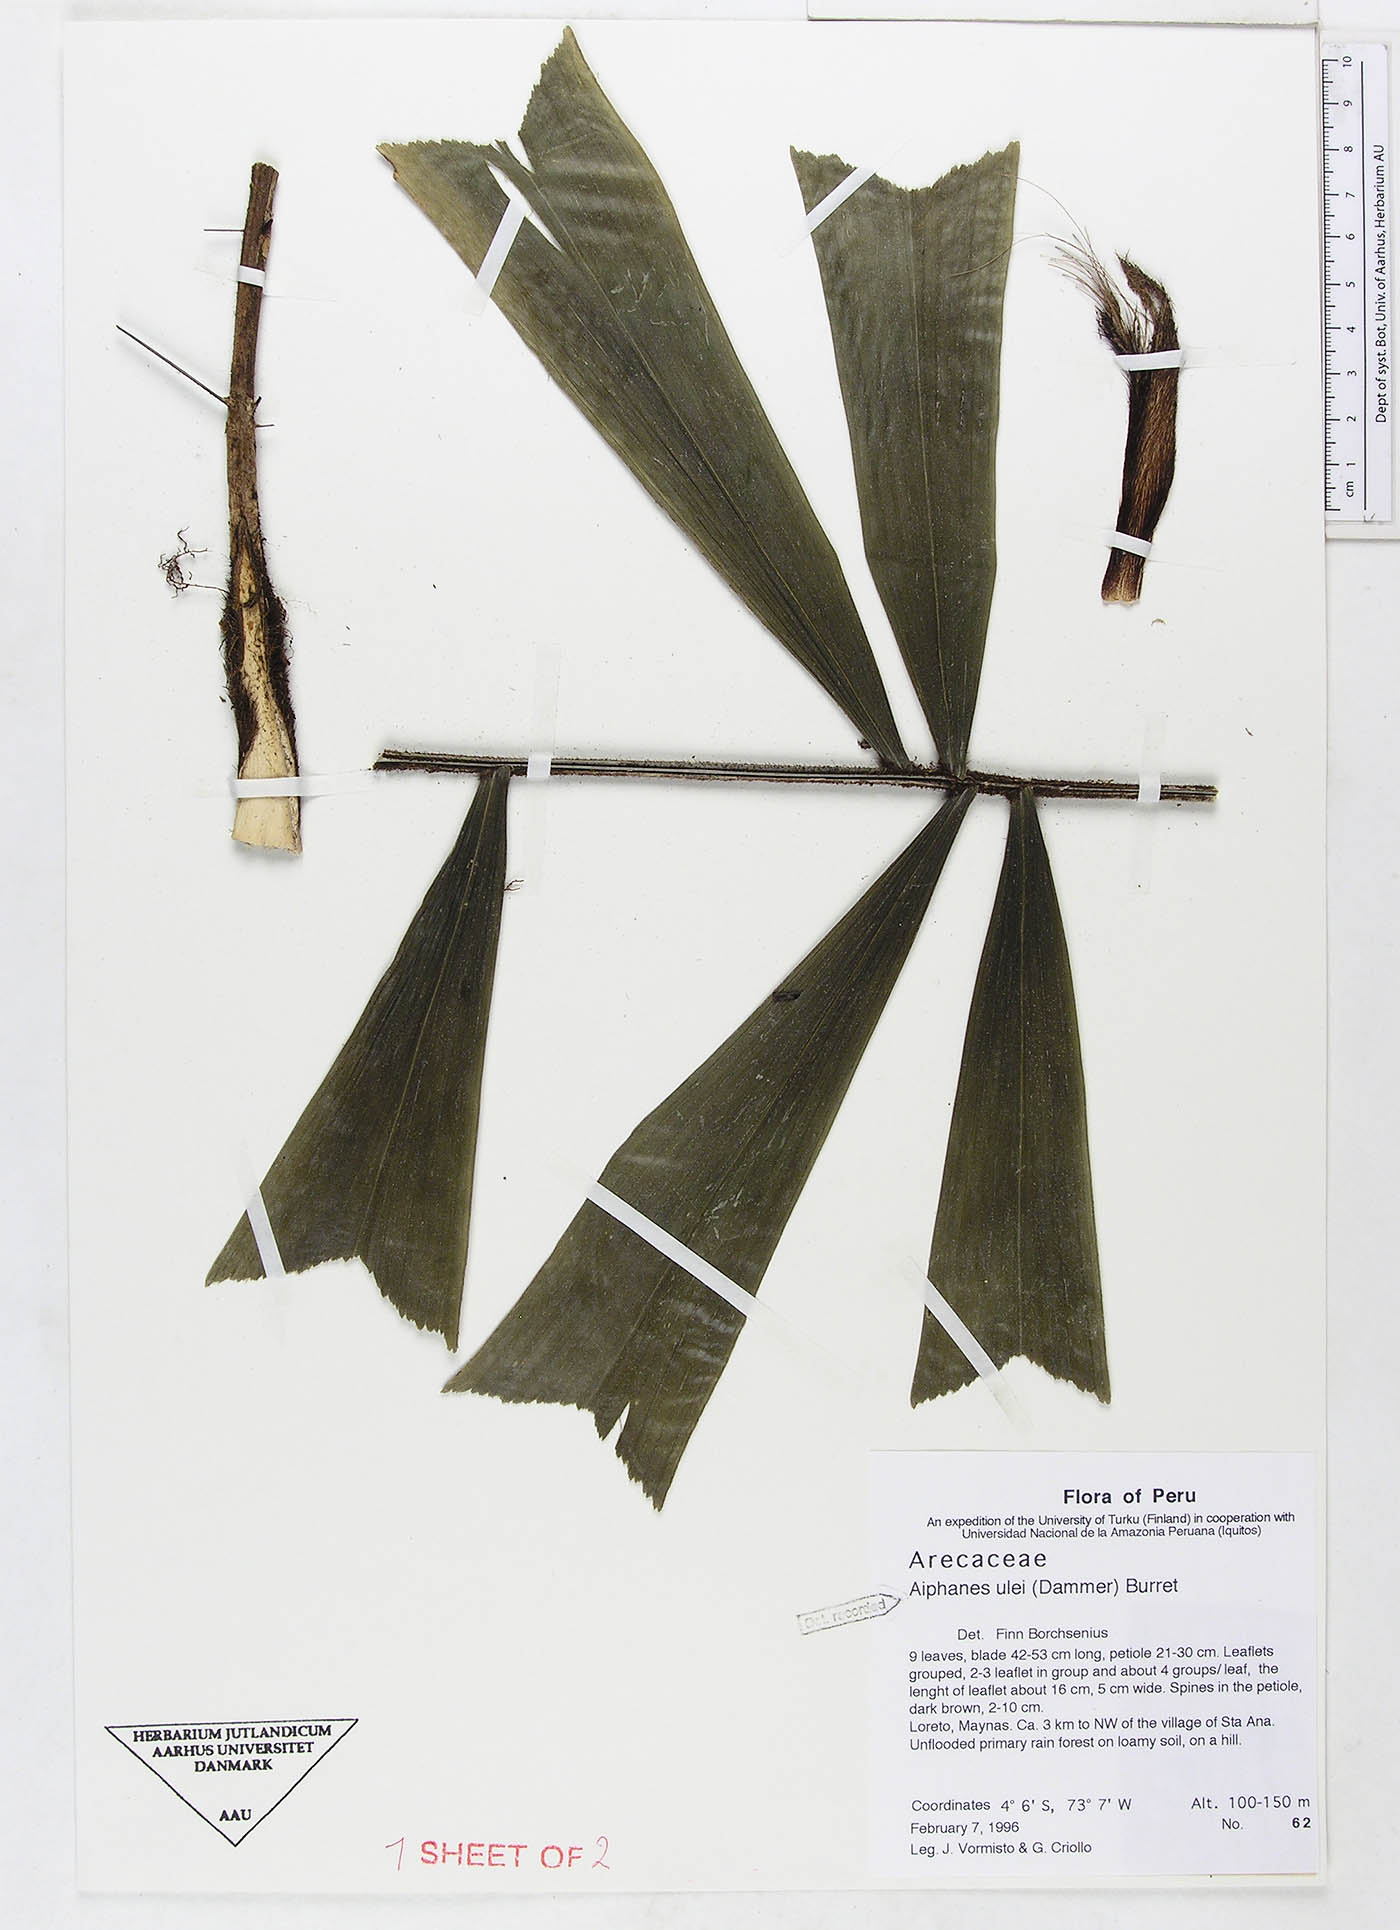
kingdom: Plantae
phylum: Tracheophyta
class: Liliopsida
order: Arecales
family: Arecaceae
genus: Aiphanes
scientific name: Aiphanes ulei
